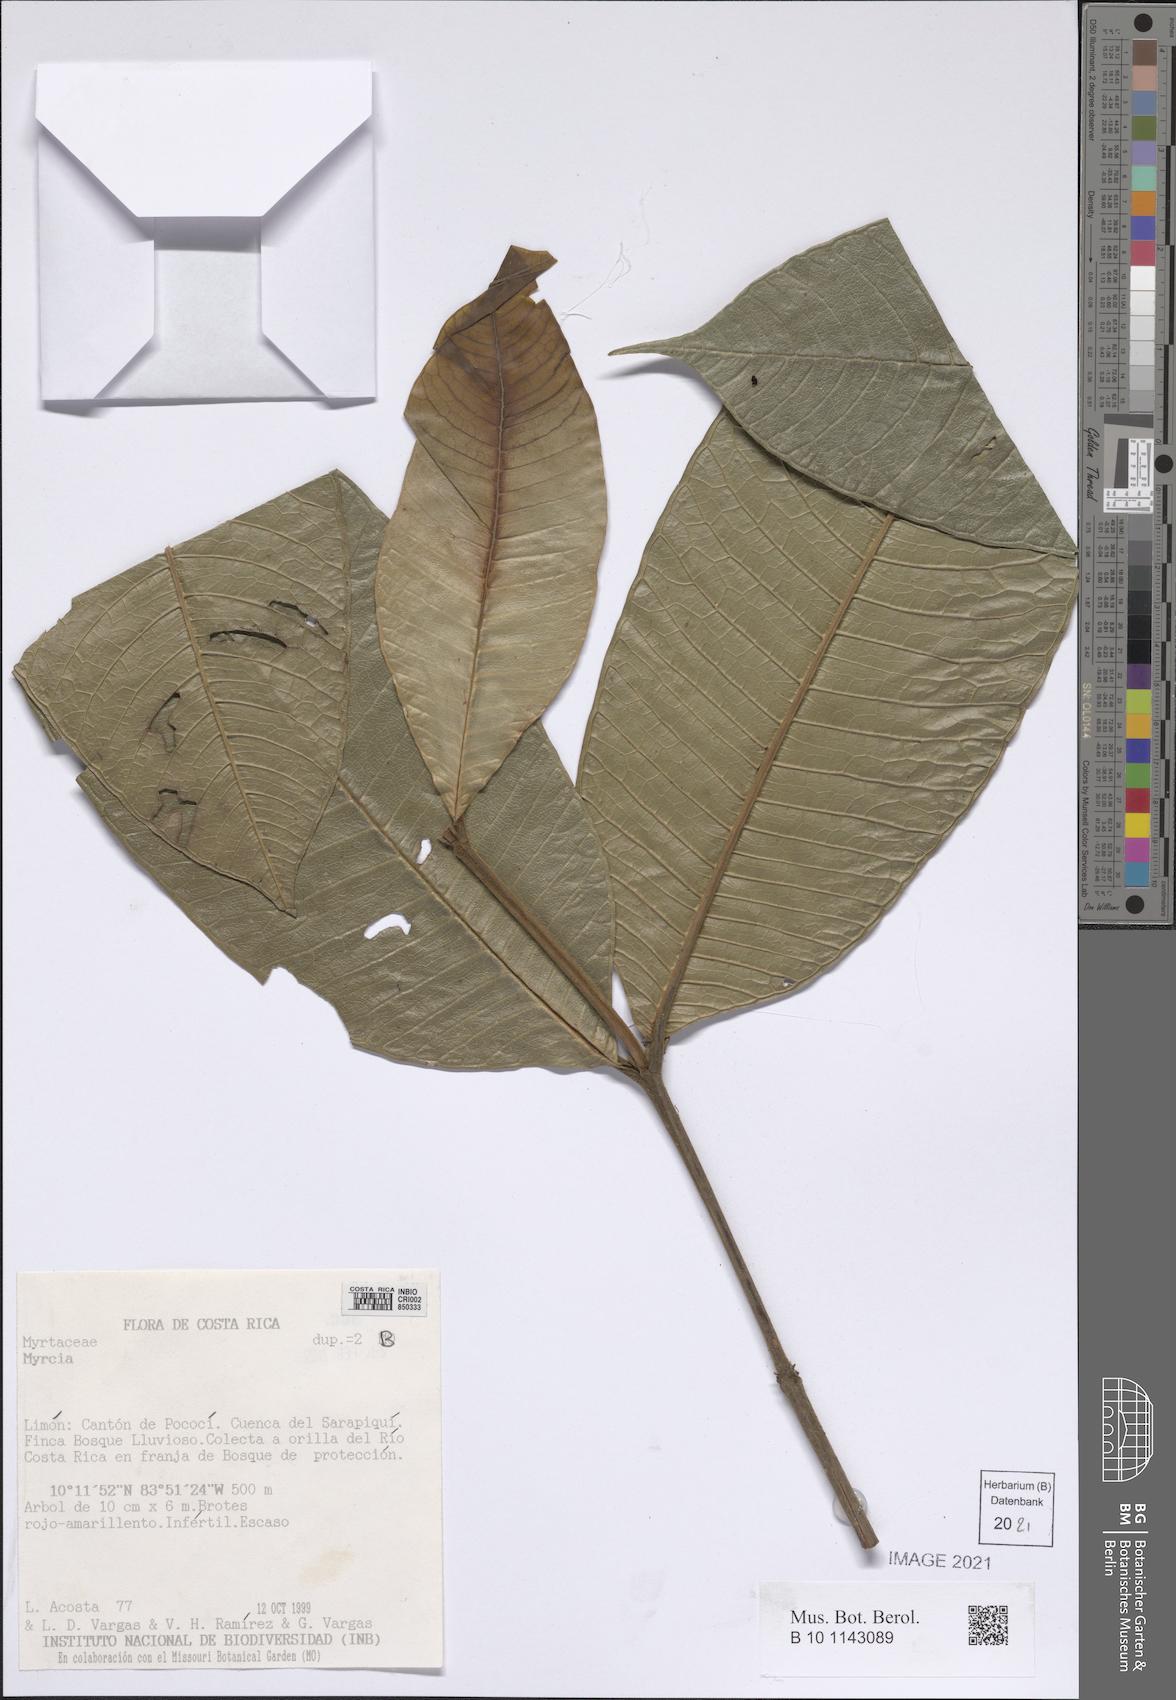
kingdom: Plantae
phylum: Tracheophyta
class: Magnoliopsida
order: Myrtales
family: Myrtaceae
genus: Myrcia
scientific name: Myrcia
